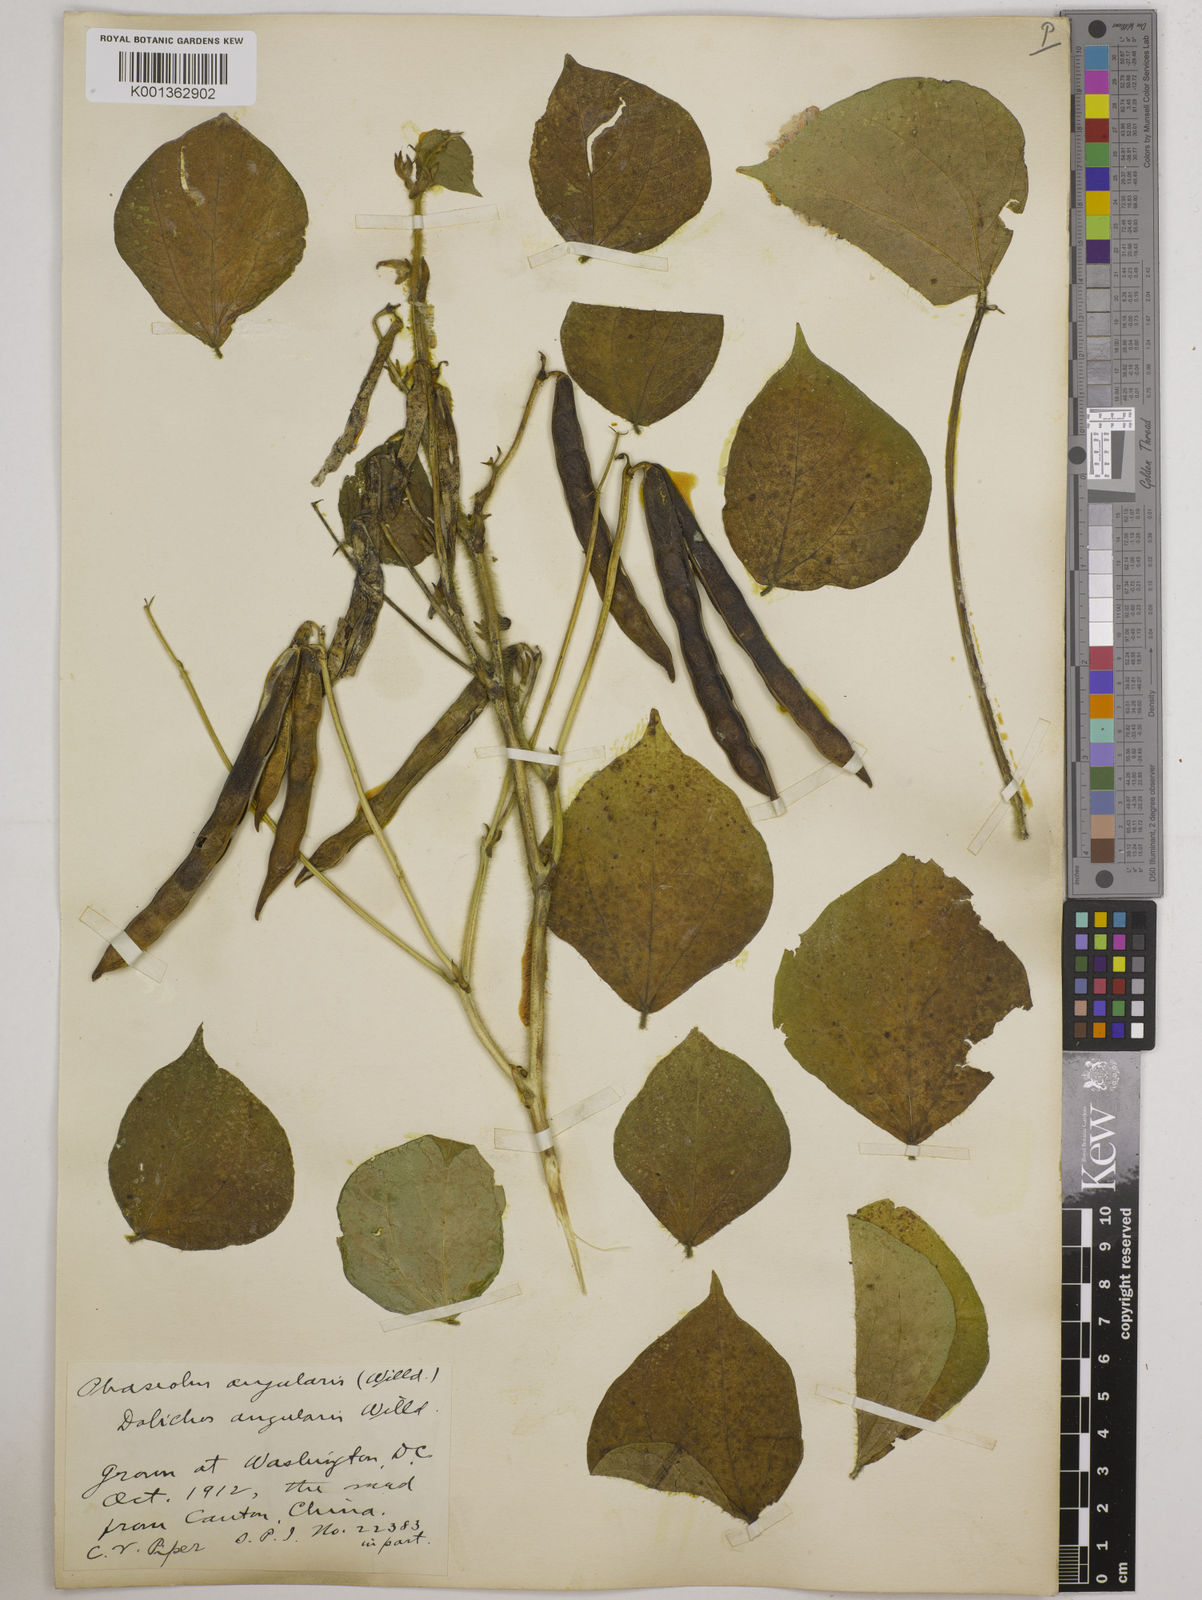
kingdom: Plantae
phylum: Tracheophyta
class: Magnoliopsida
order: Fabales
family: Fabaceae
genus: Vigna
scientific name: Vigna angularis
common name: Adzuki bean
